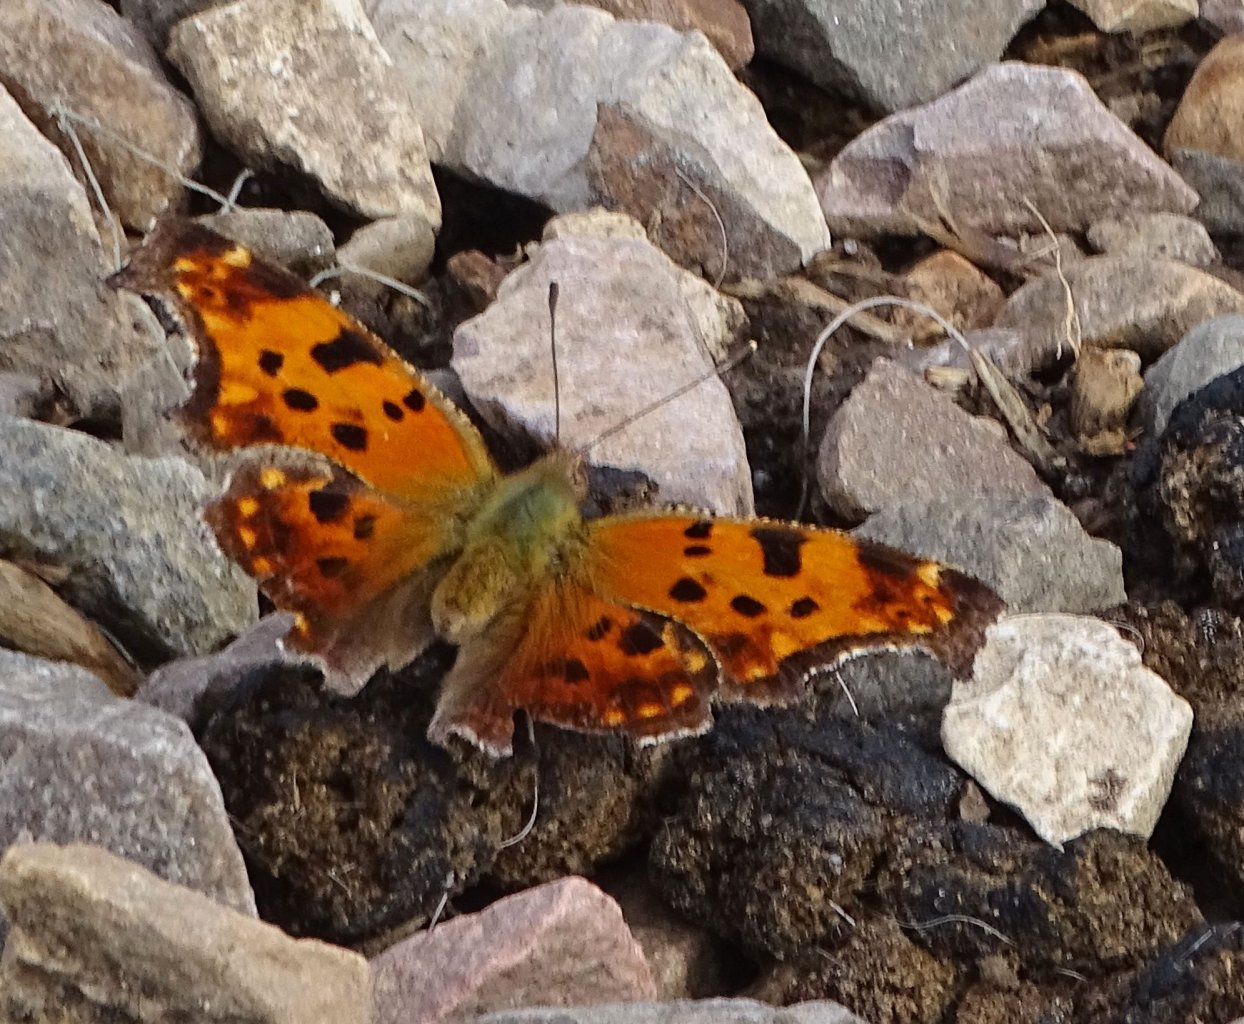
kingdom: Animalia
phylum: Arthropoda
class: Insecta
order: Lepidoptera
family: Nymphalidae
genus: Polygonia
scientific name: Polygonia comma
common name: Eastern Comma
